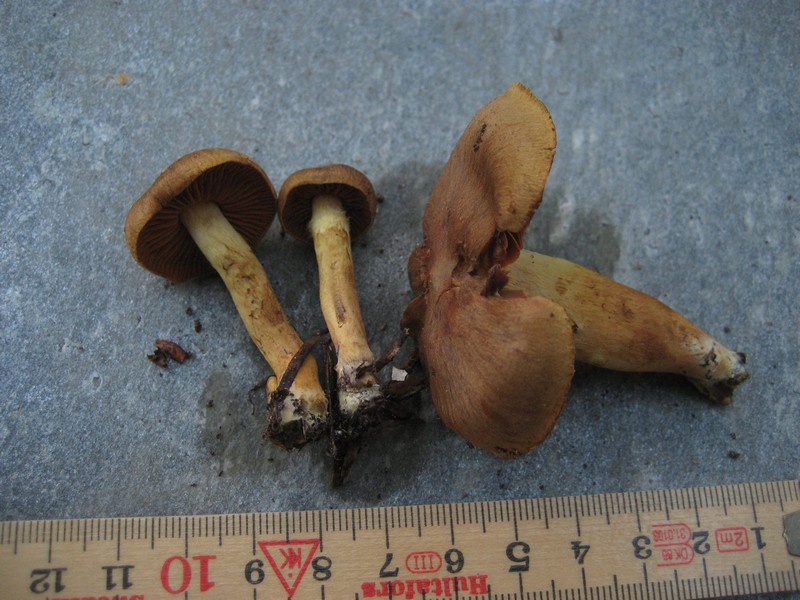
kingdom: Fungi
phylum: Basidiomycota
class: Agaricomycetes
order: Agaricales
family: Cortinariaceae
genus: Cortinarius
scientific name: Cortinarius
